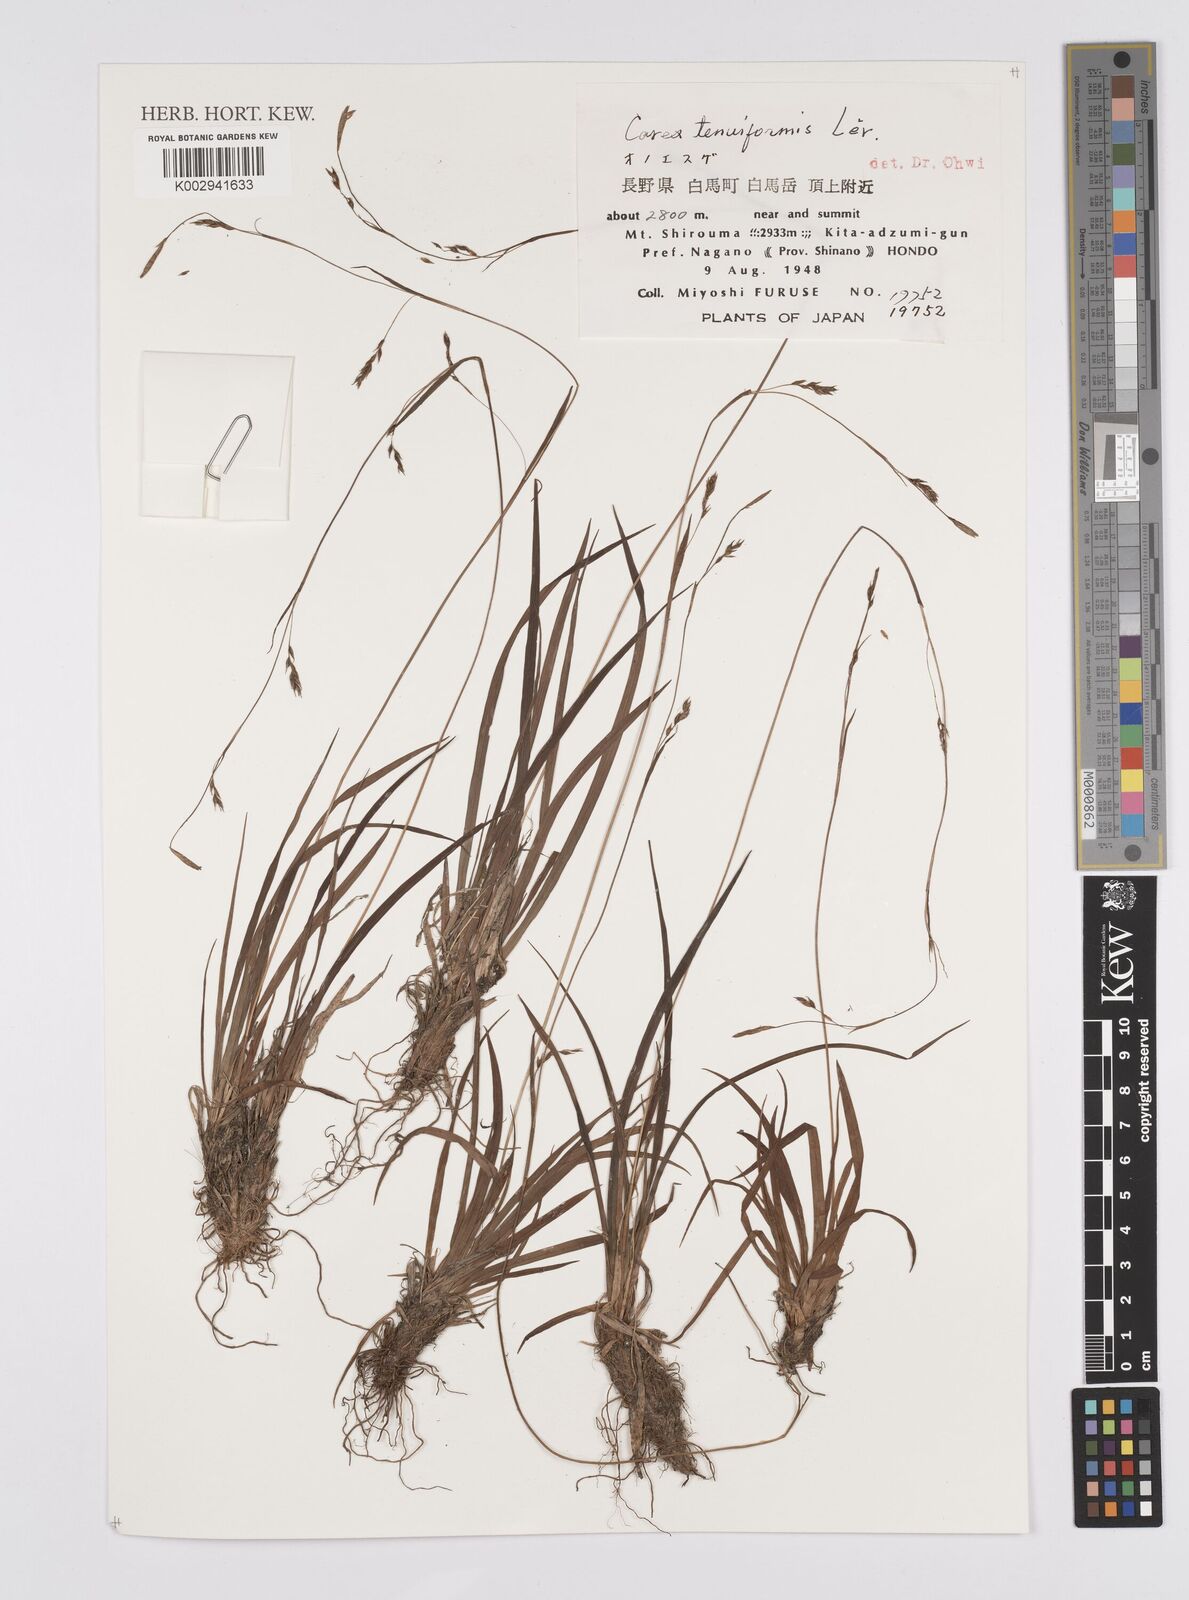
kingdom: Plantae
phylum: Tracheophyta
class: Liliopsida
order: Poales
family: Cyperaceae
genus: Carex
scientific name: Carex tenuiformis
